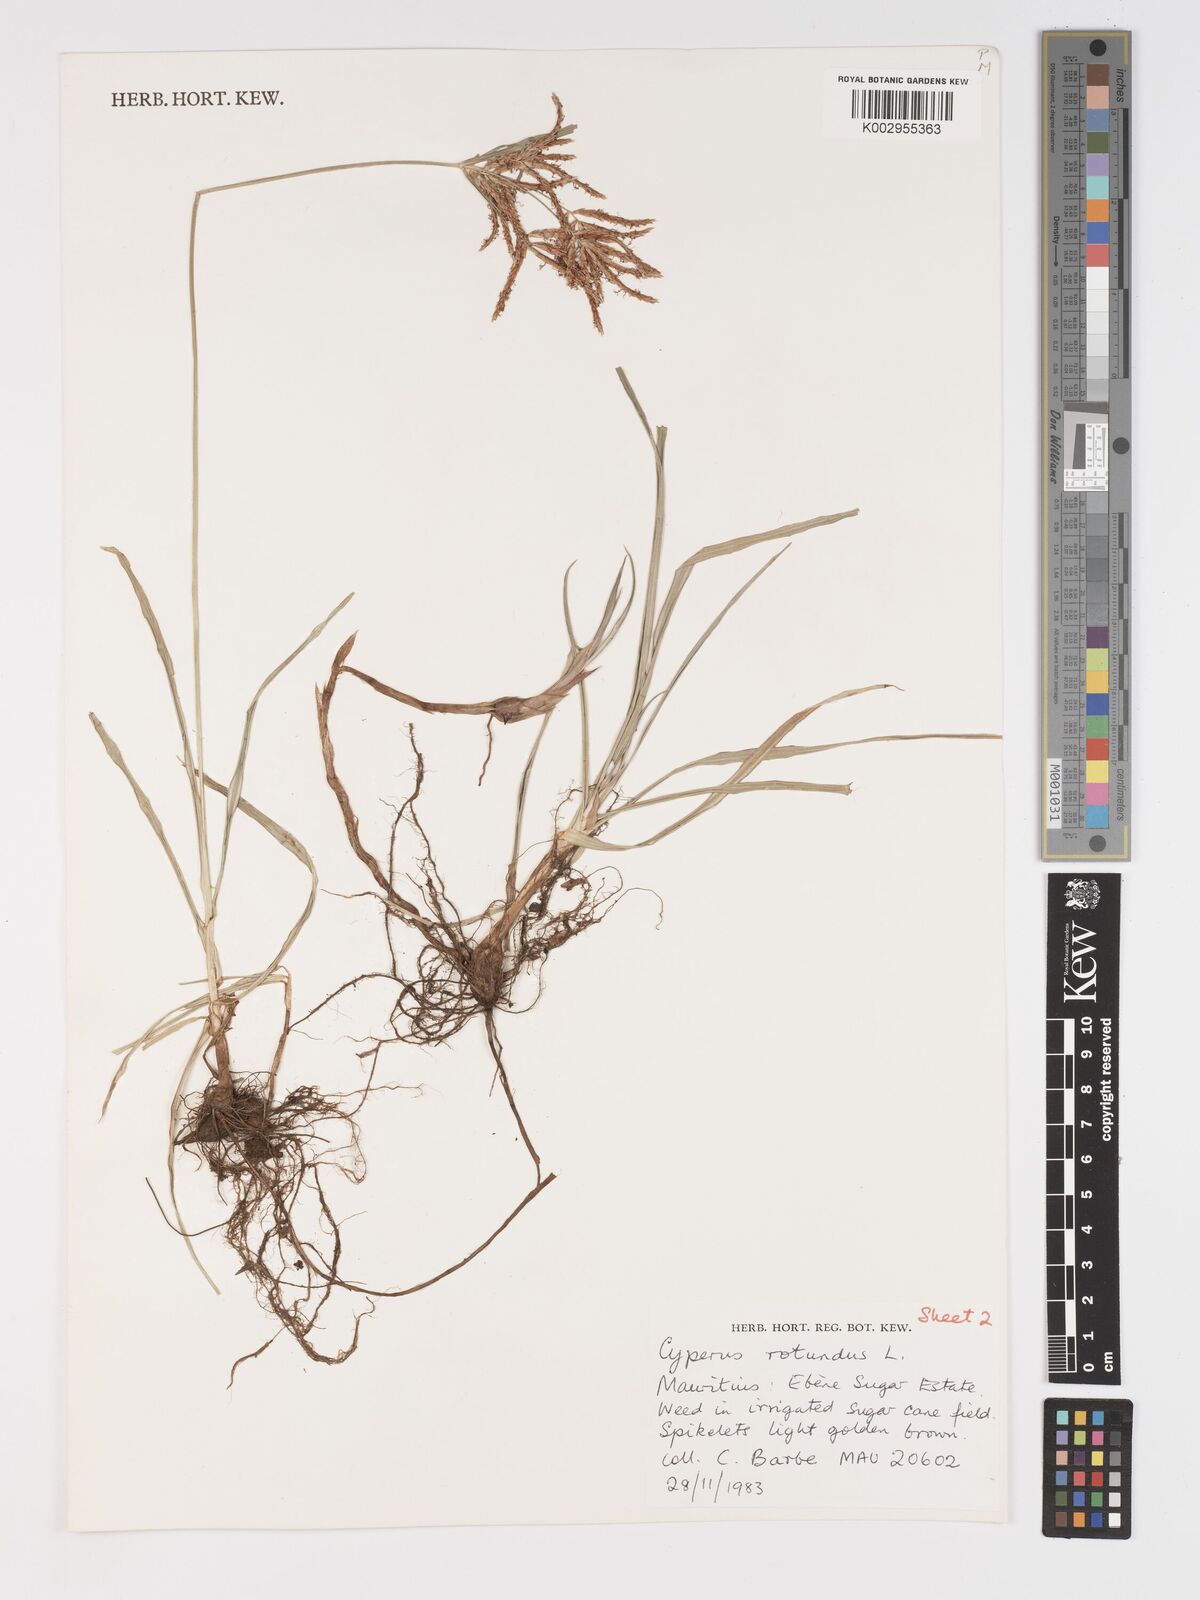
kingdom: Plantae
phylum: Tracheophyta
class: Liliopsida
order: Poales
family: Cyperaceae
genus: Cyperus
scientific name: Cyperus rotundus
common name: Nutgrass
